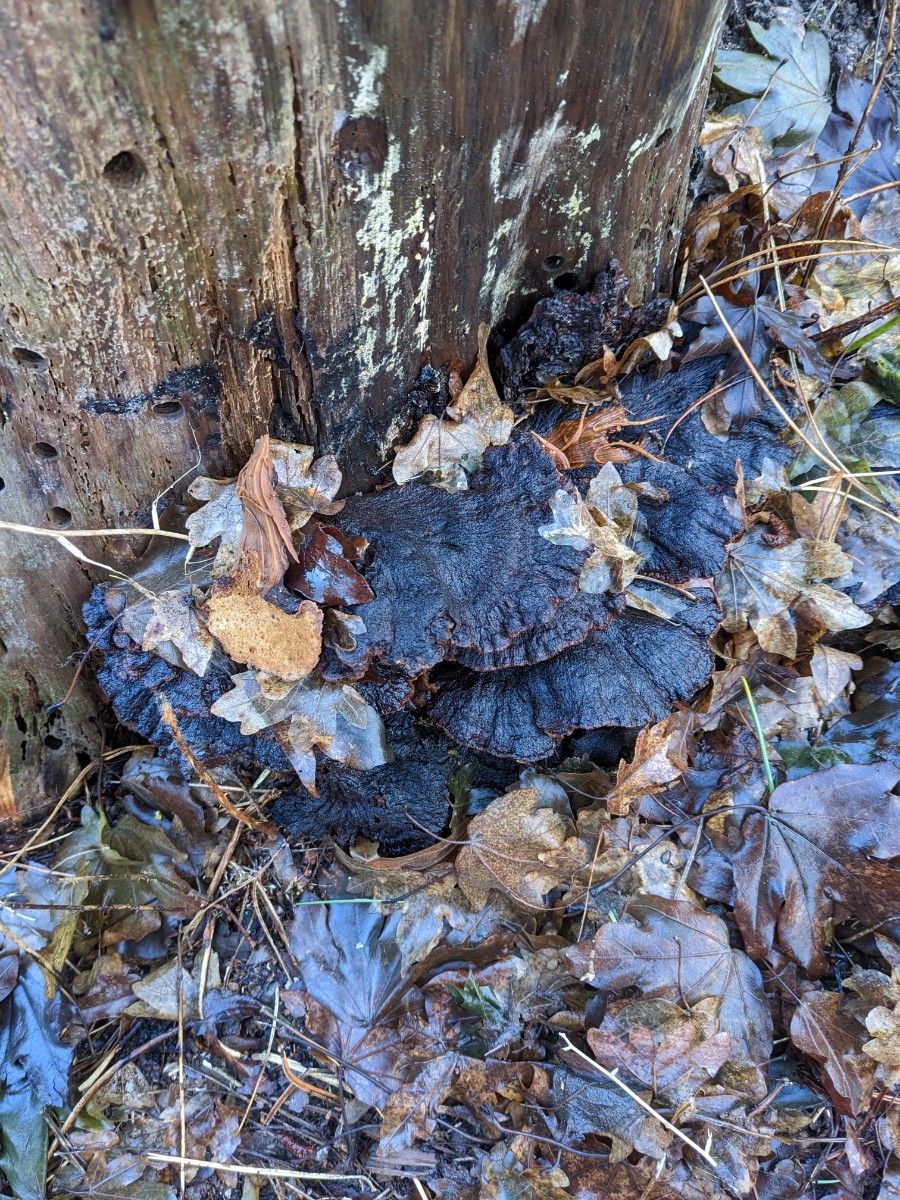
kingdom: Fungi
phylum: Basidiomycota
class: Agaricomycetes
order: Polyporales
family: Ischnodermataceae
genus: Ischnoderma
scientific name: Ischnoderma benzoinum
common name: gran-tjæreporesvamp
